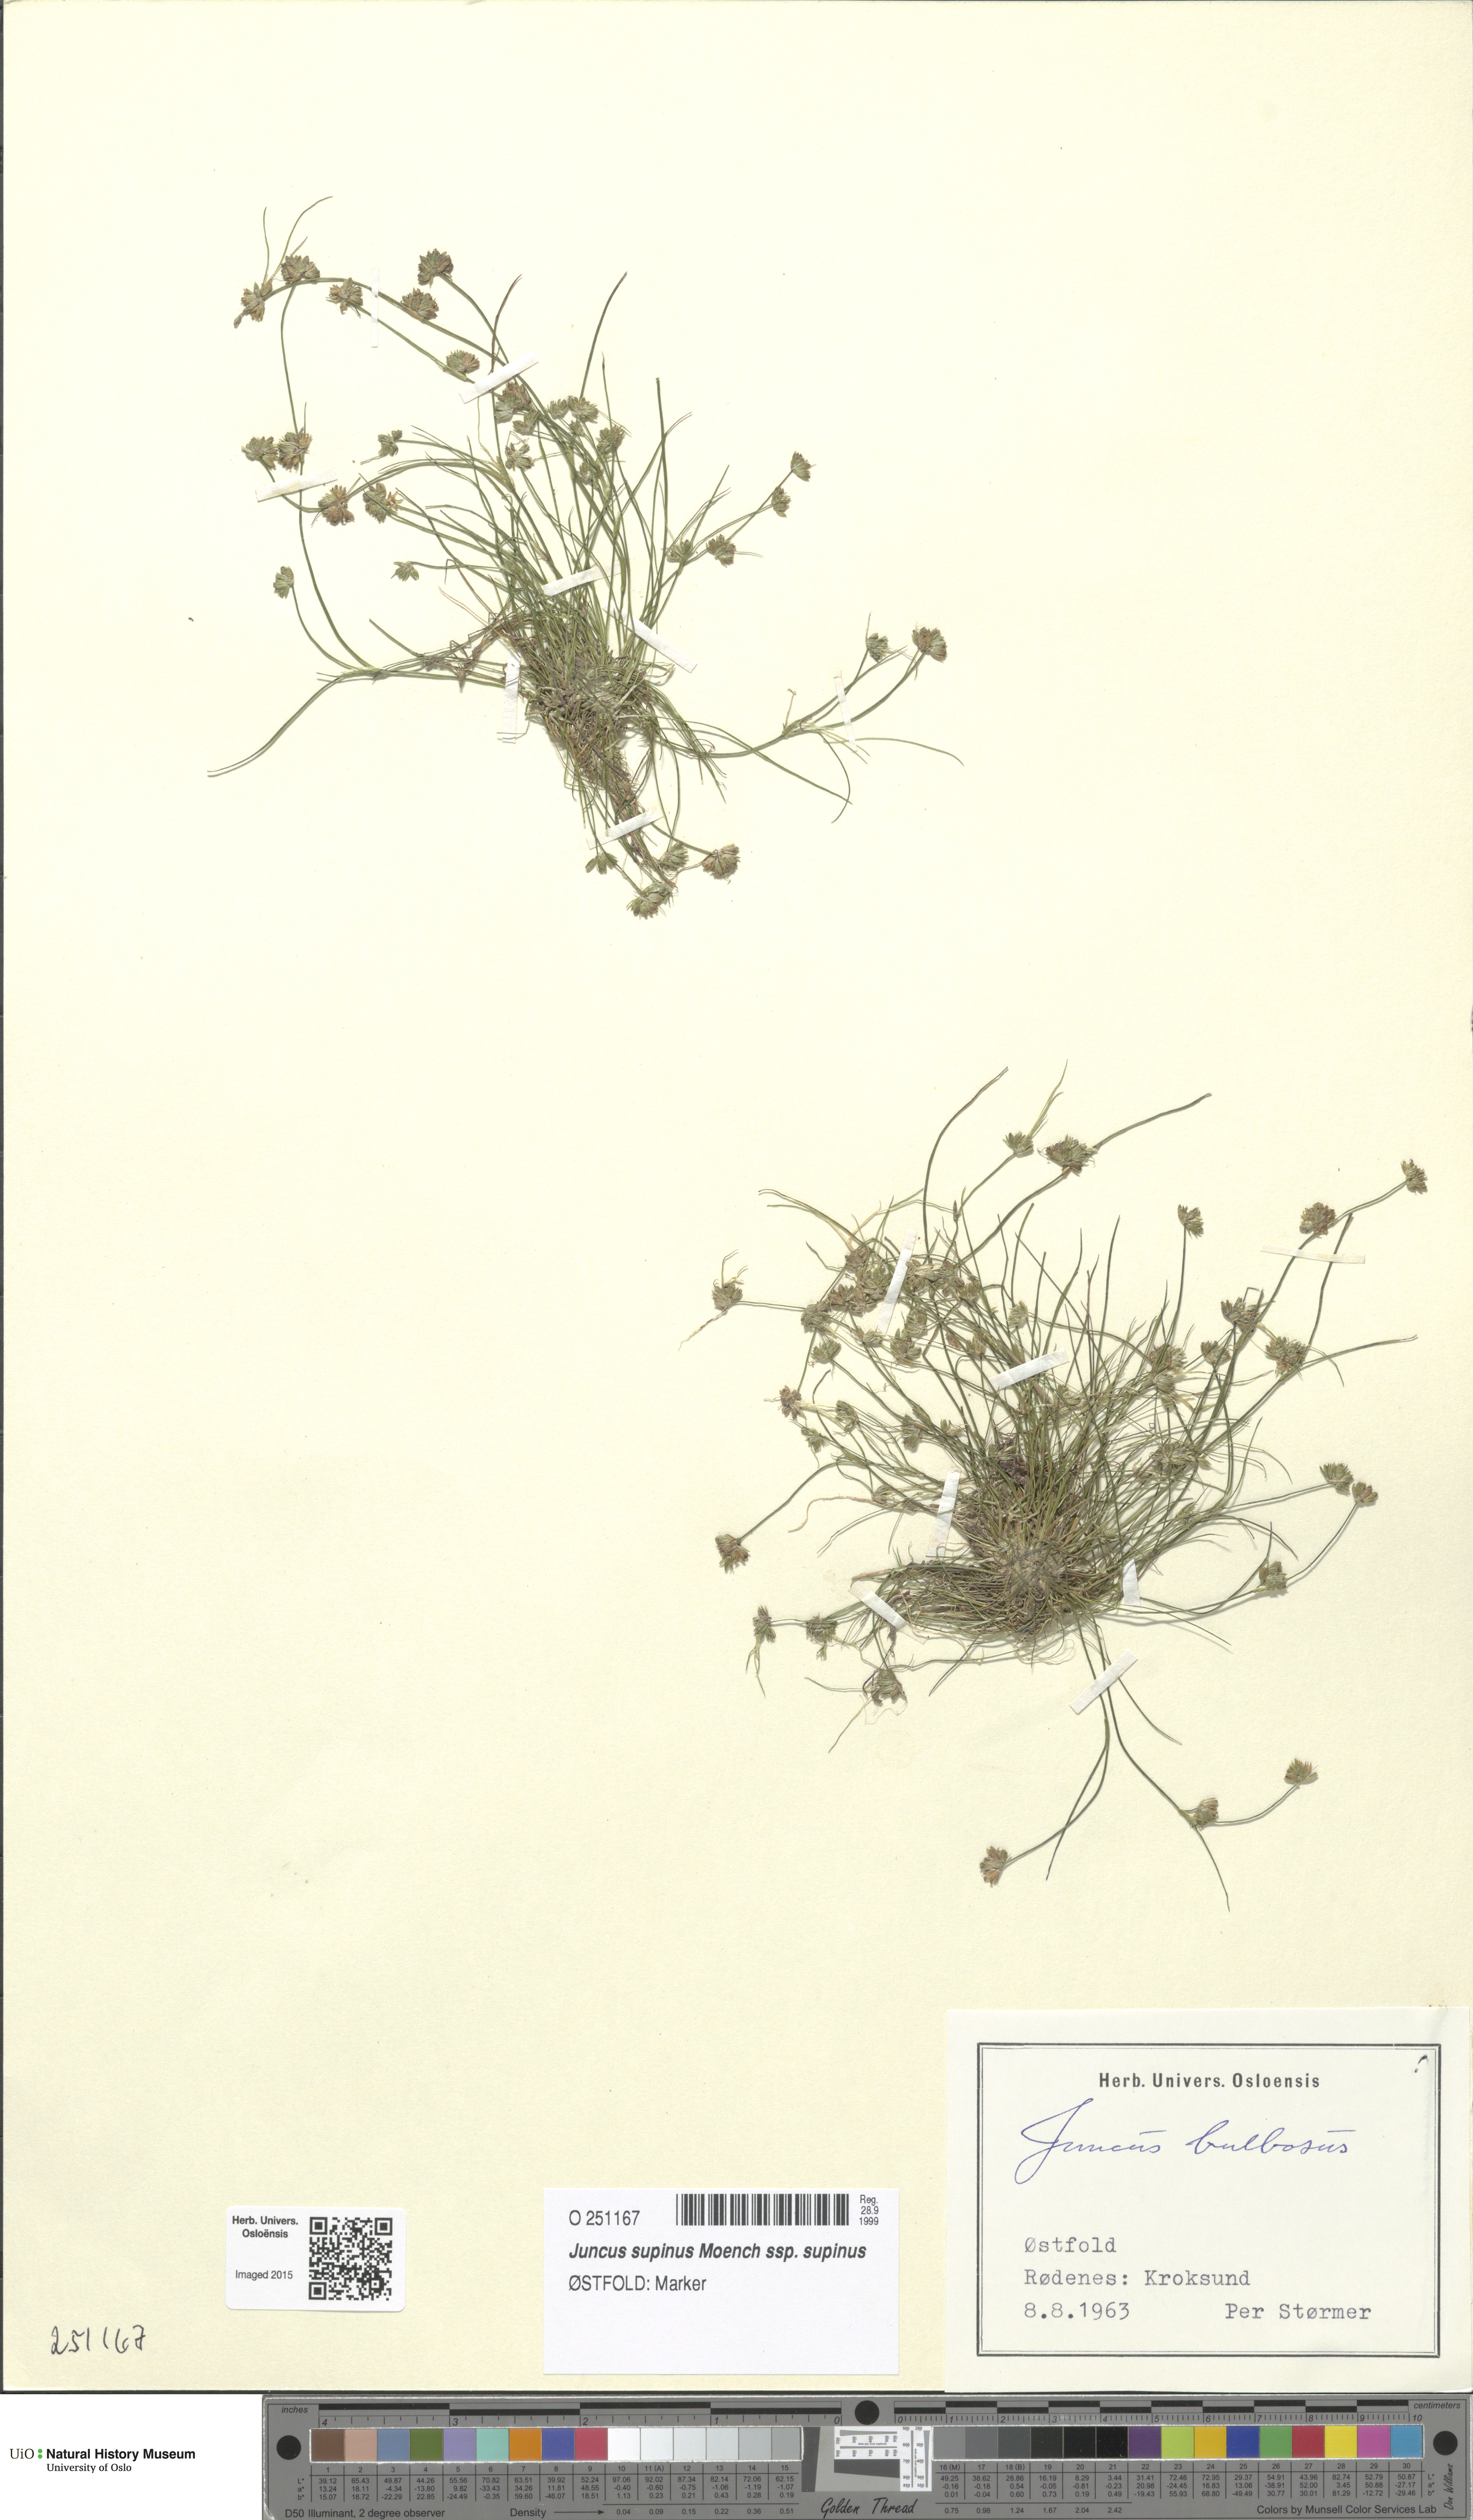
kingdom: Plantae
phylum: Tracheophyta
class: Liliopsida
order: Poales
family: Juncaceae
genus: Juncus
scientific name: Juncus bulbosus
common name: Bulbous rush
